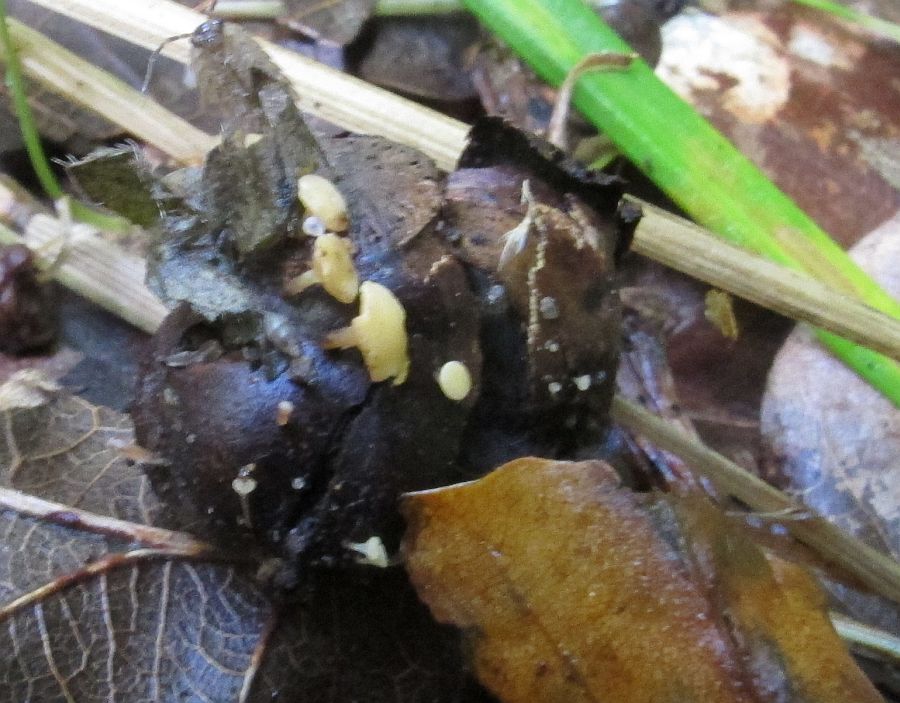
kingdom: Fungi
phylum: Ascomycota
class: Leotiomycetes
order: Helotiales
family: Helotiaceae
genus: Hymenoscyphus
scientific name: Hymenoscyphus fructigenus
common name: frugt-stilkskive
